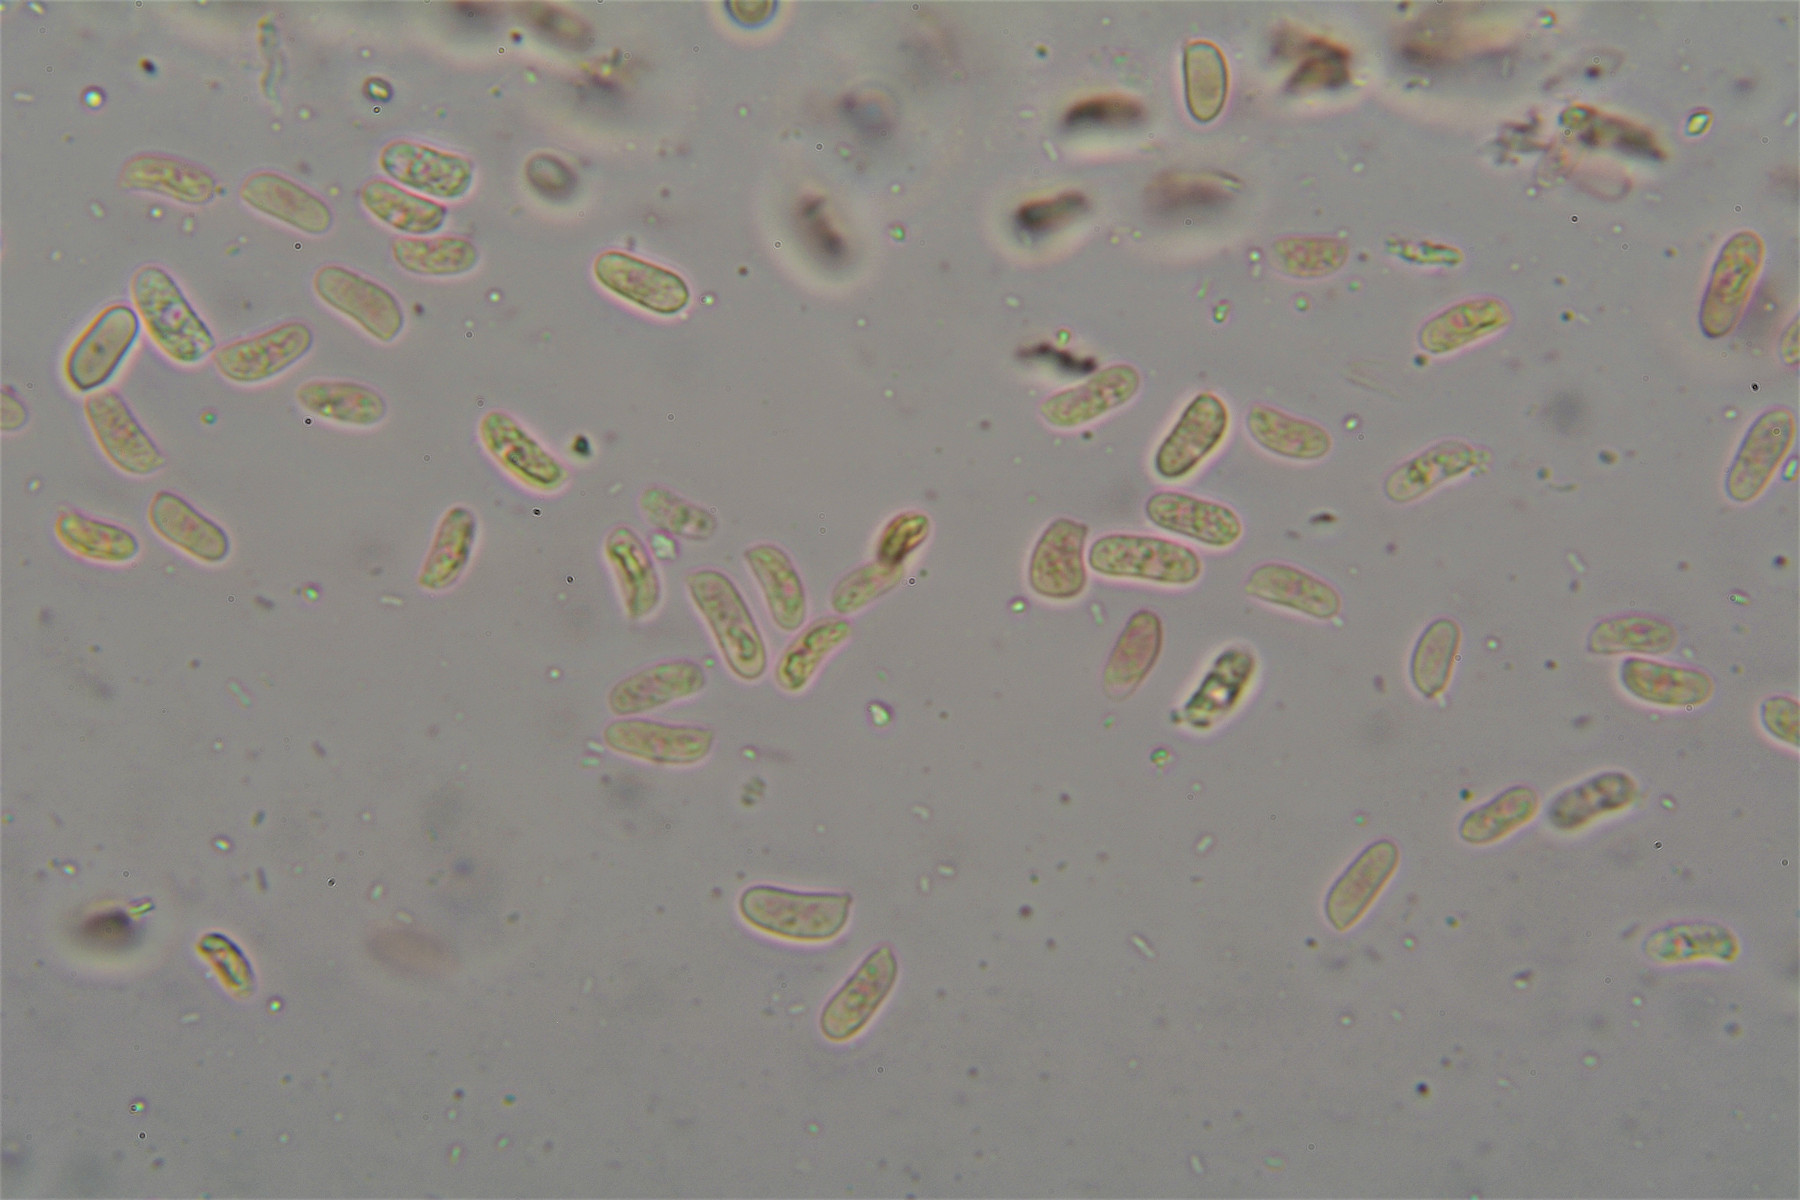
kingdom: Fungi
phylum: Basidiomycota
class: Agaricomycetes
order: Hymenochaetales
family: Rickenellaceae
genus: Peniophorella
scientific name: Peniophorella pubera
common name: dunet kalkskind
